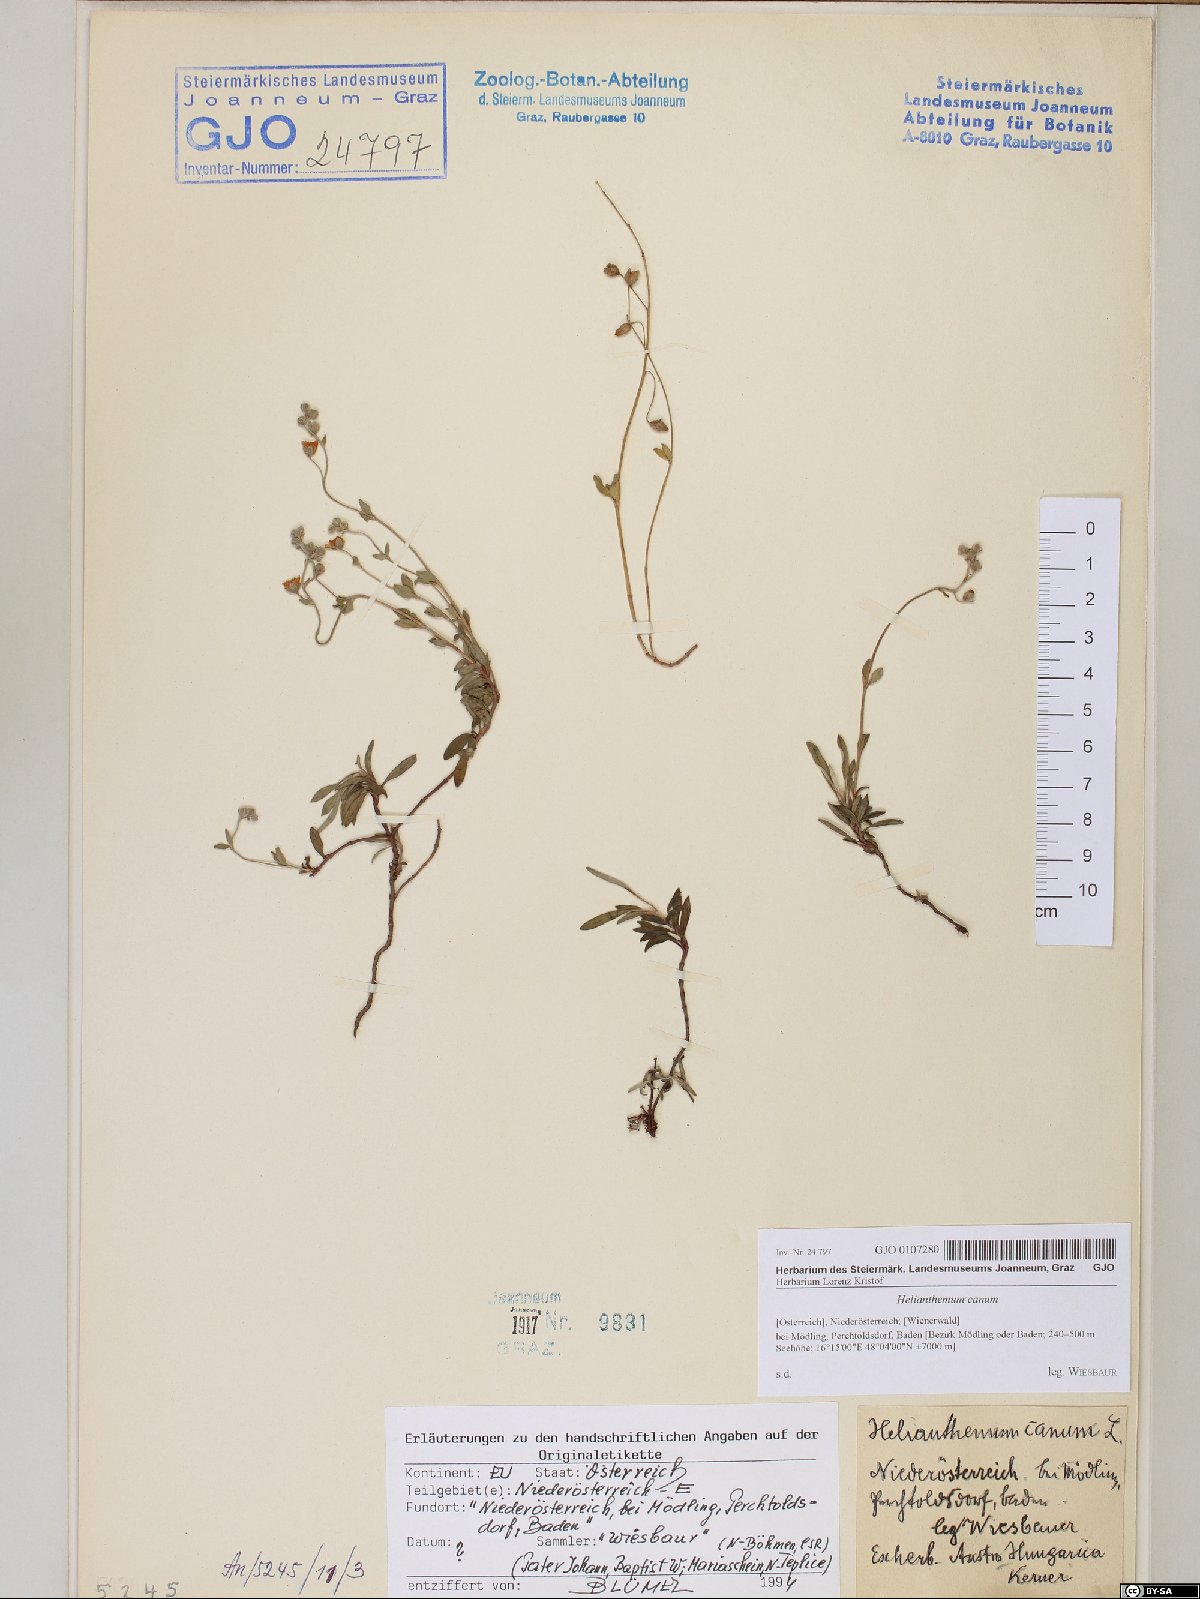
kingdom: Plantae
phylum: Tracheophyta
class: Magnoliopsida
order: Malvales
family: Cistaceae
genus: Helianthemum
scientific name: Helianthemum canum
